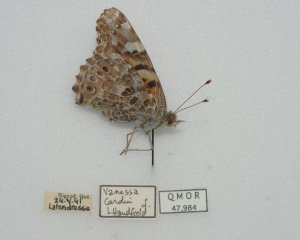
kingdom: Animalia
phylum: Arthropoda
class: Insecta
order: Lepidoptera
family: Nymphalidae
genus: Vanessa
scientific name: Vanessa cardui
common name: Painted Lady
